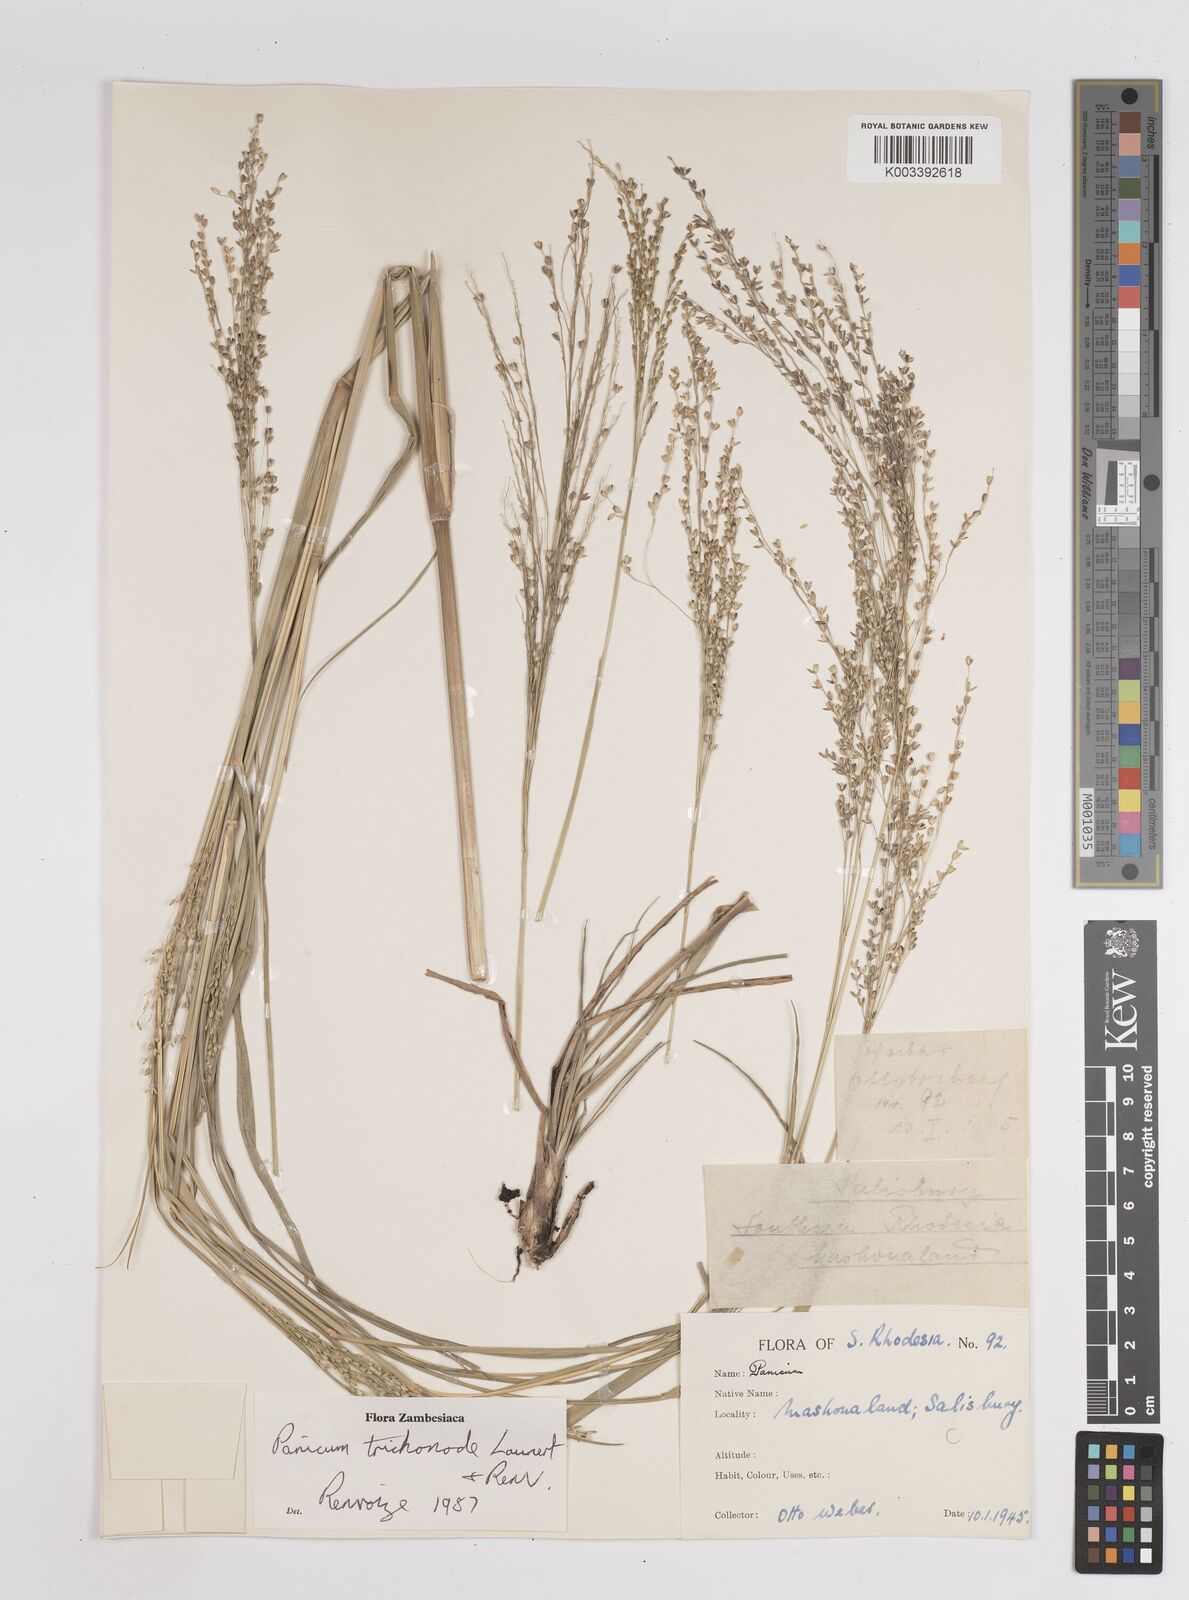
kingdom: Plantae
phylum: Tracheophyta
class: Liliopsida
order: Poales
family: Poaceae
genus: Panicum
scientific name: Panicum trichonode
